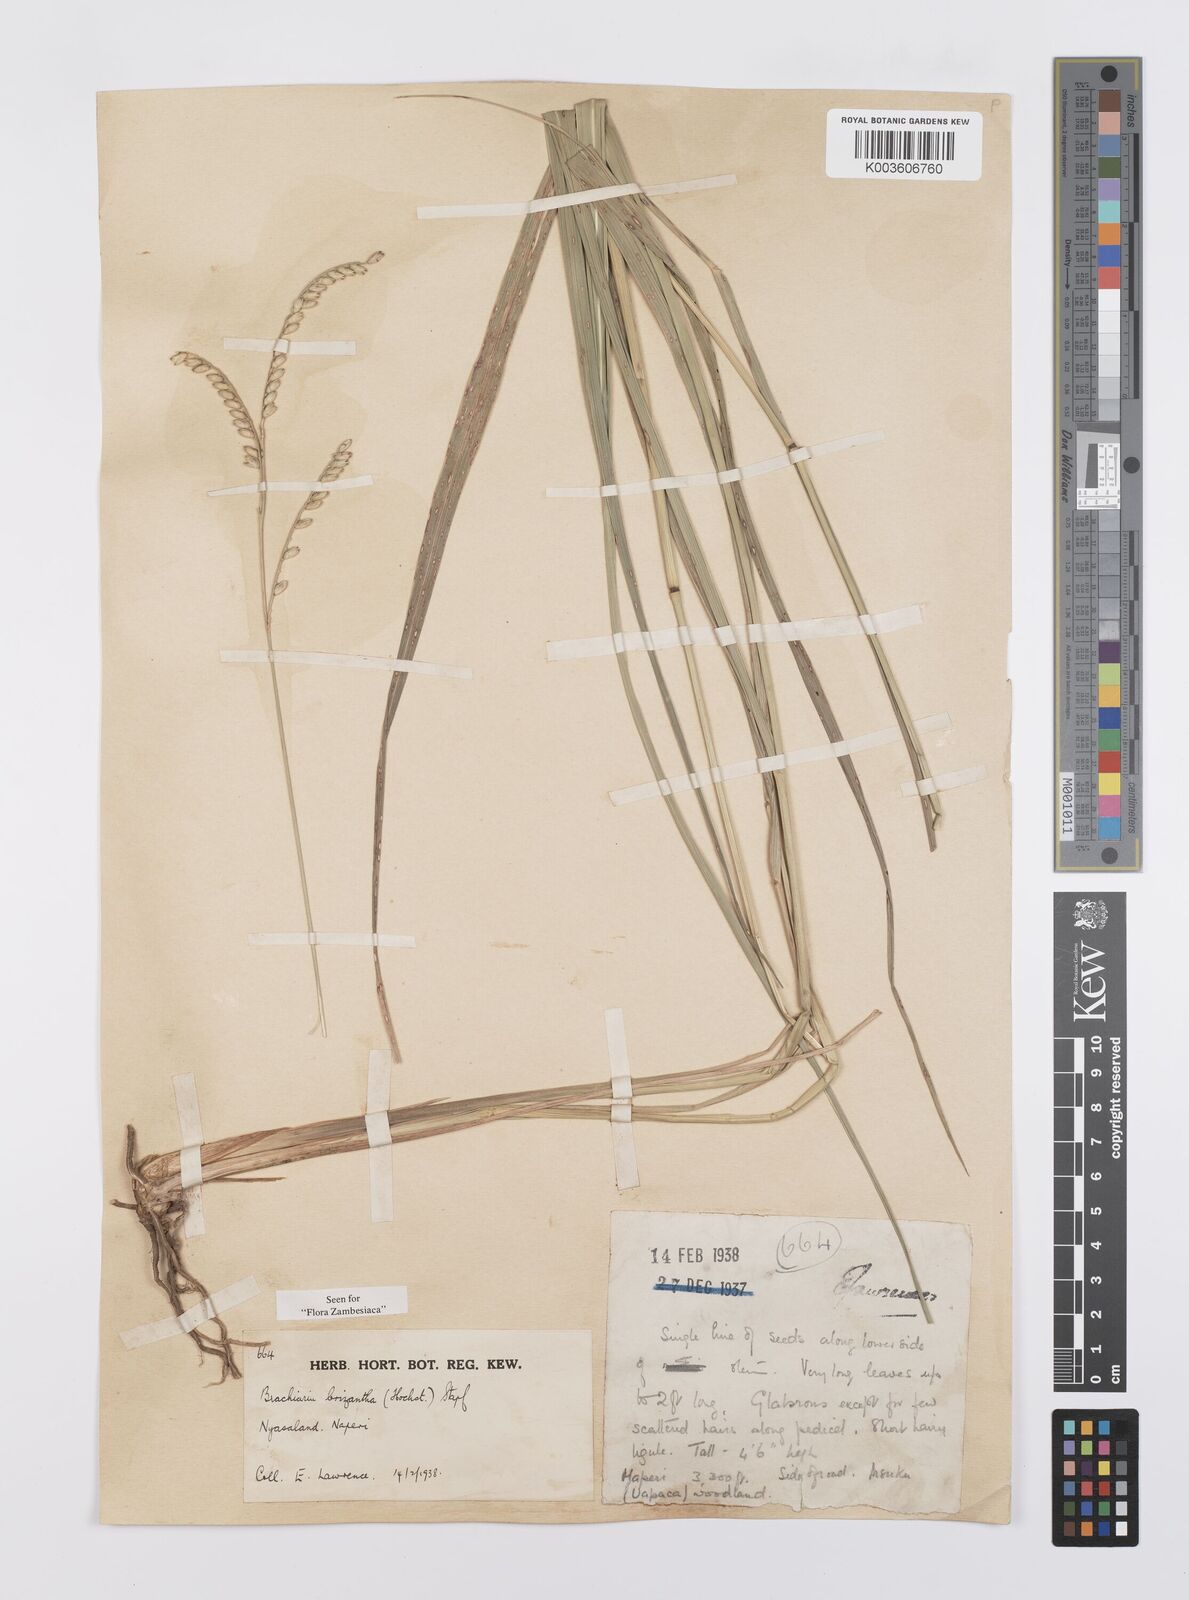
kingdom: Plantae
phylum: Tracheophyta
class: Liliopsida
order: Poales
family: Poaceae
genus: Urochloa
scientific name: Urochloa brizantha
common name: Palisade signalgrass
